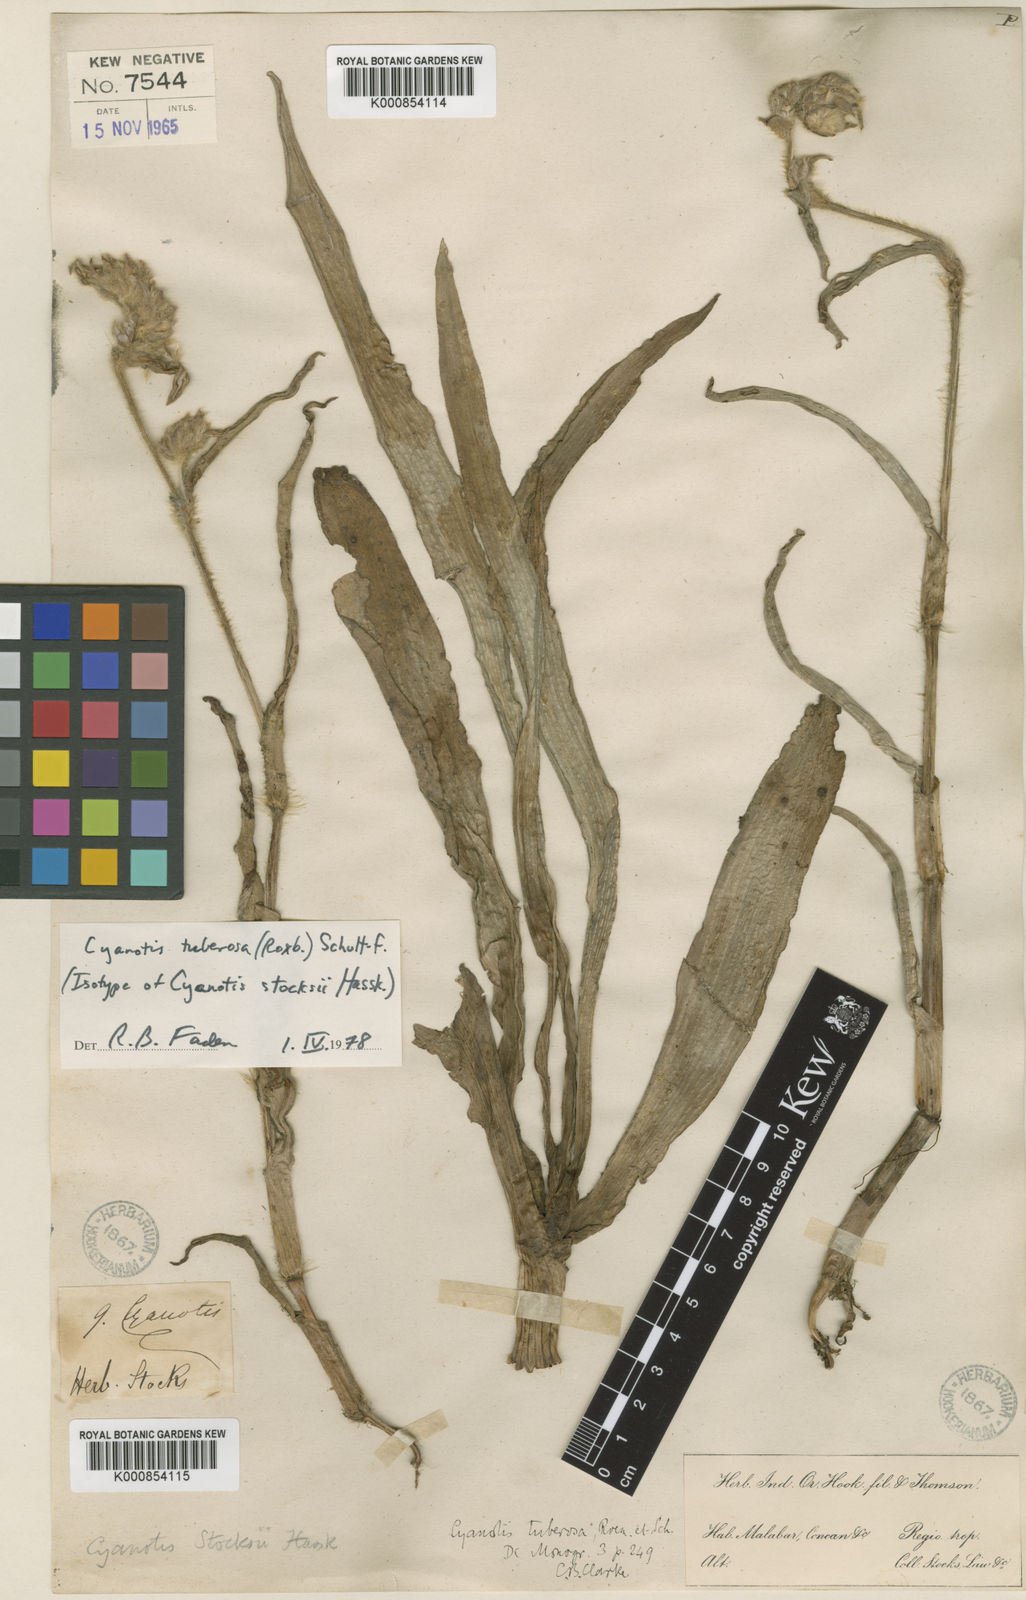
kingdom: Plantae
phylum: Tracheophyta
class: Liliopsida
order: Commelinales
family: Commelinaceae
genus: Cyanotis
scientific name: Cyanotis tuberosa
